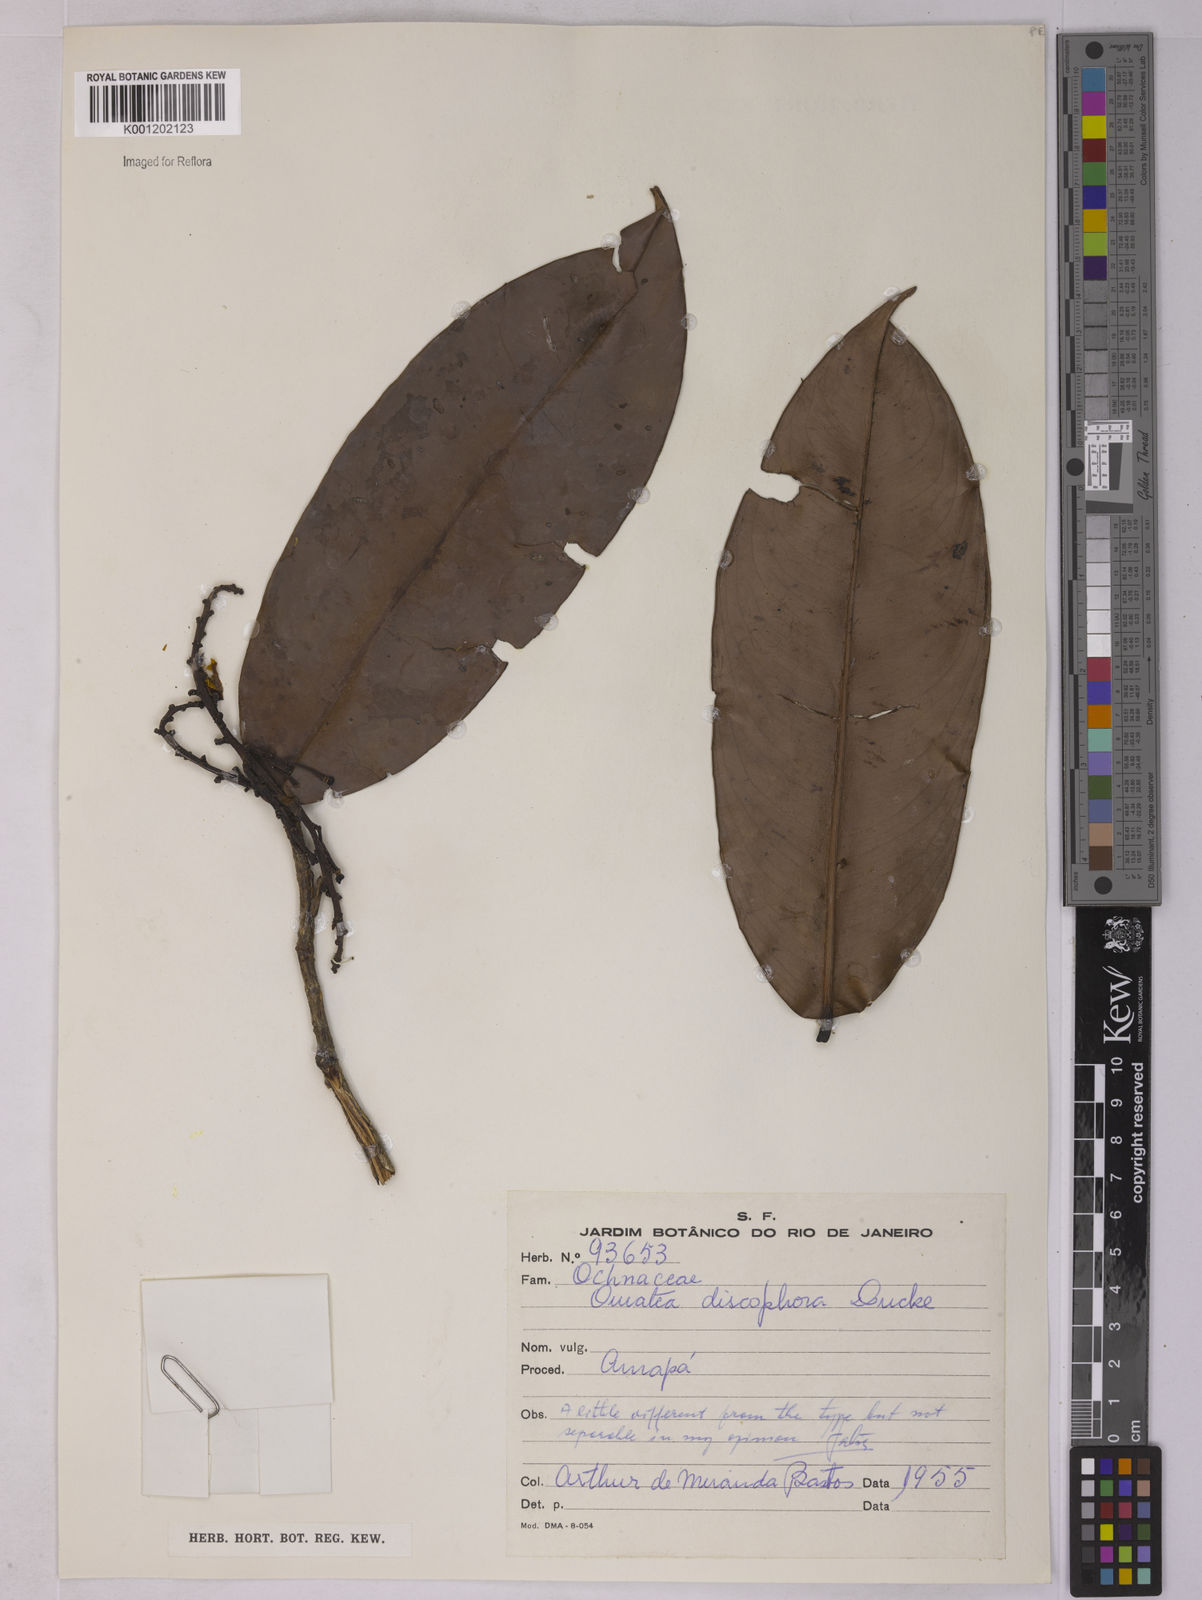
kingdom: Plantae
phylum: Tracheophyta
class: Magnoliopsida
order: Malpighiales
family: Ochnaceae
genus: Ouratea
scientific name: Ouratea discophora
